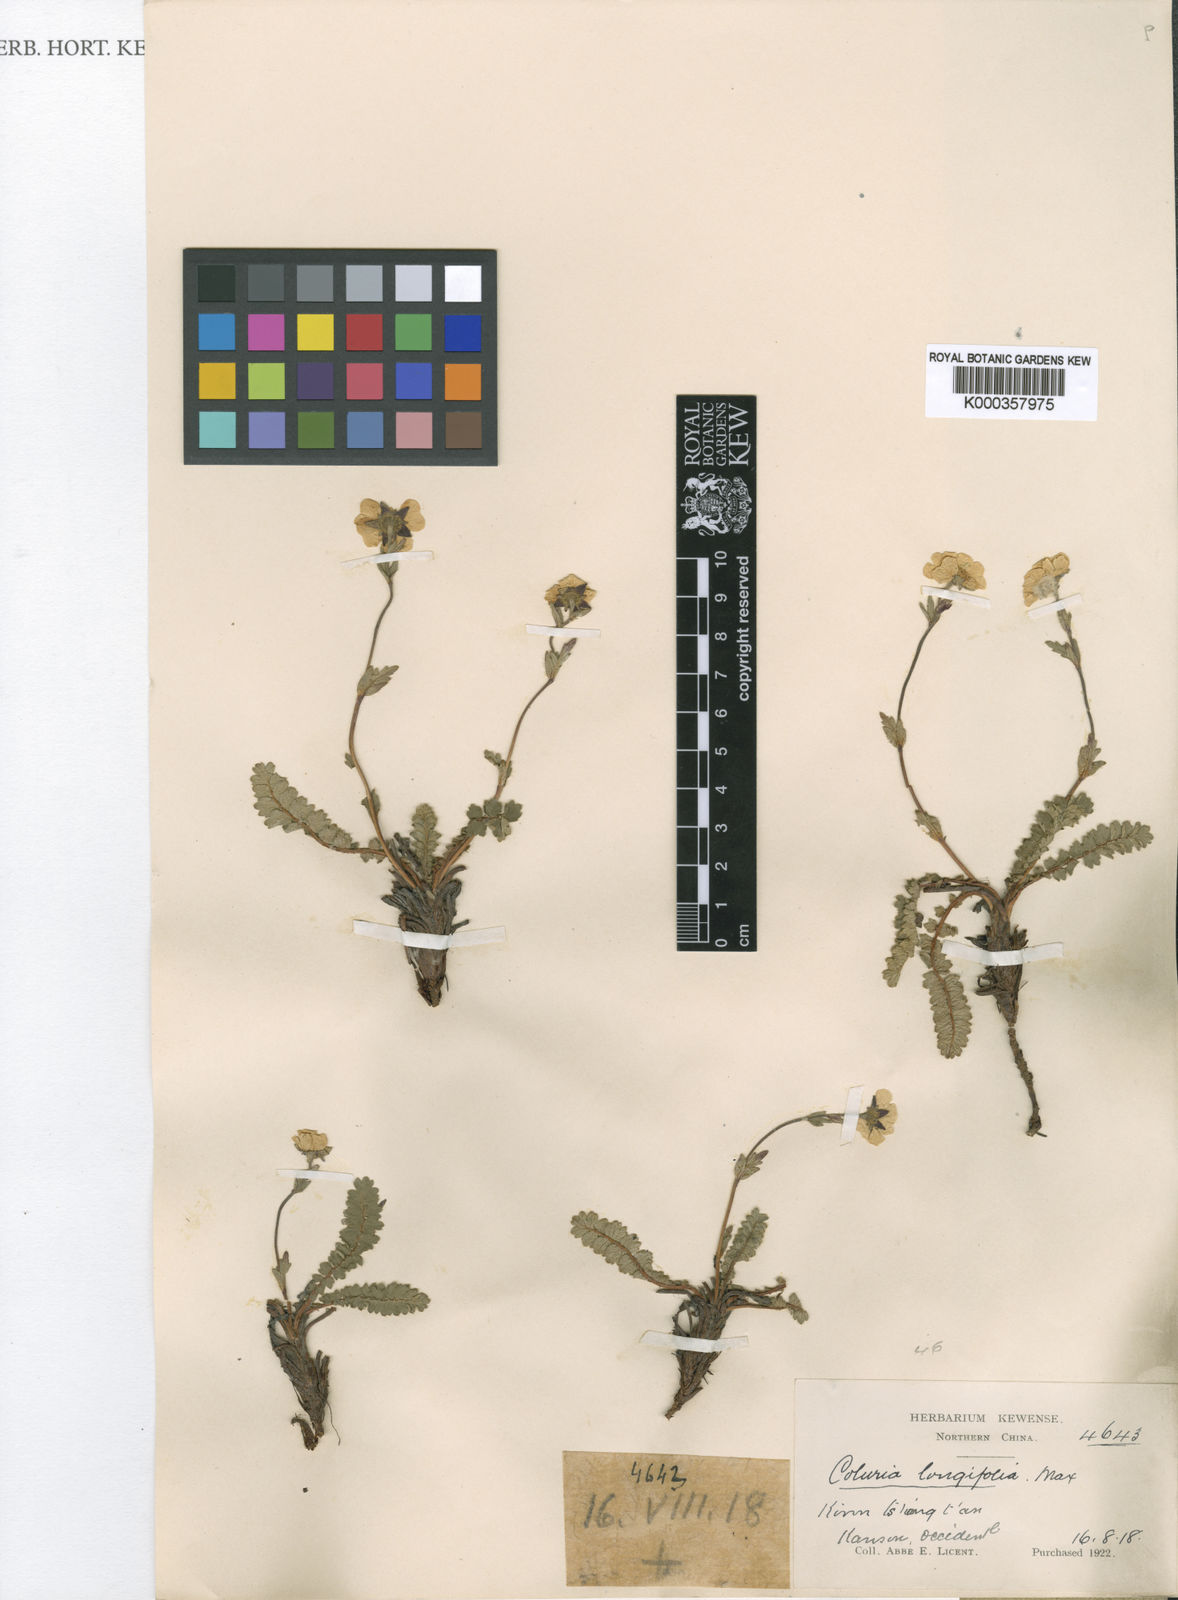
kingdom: Plantae
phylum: Tracheophyta
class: Magnoliopsida
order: Rosales
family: Rosaceae
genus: Geum
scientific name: Geum longifolium
